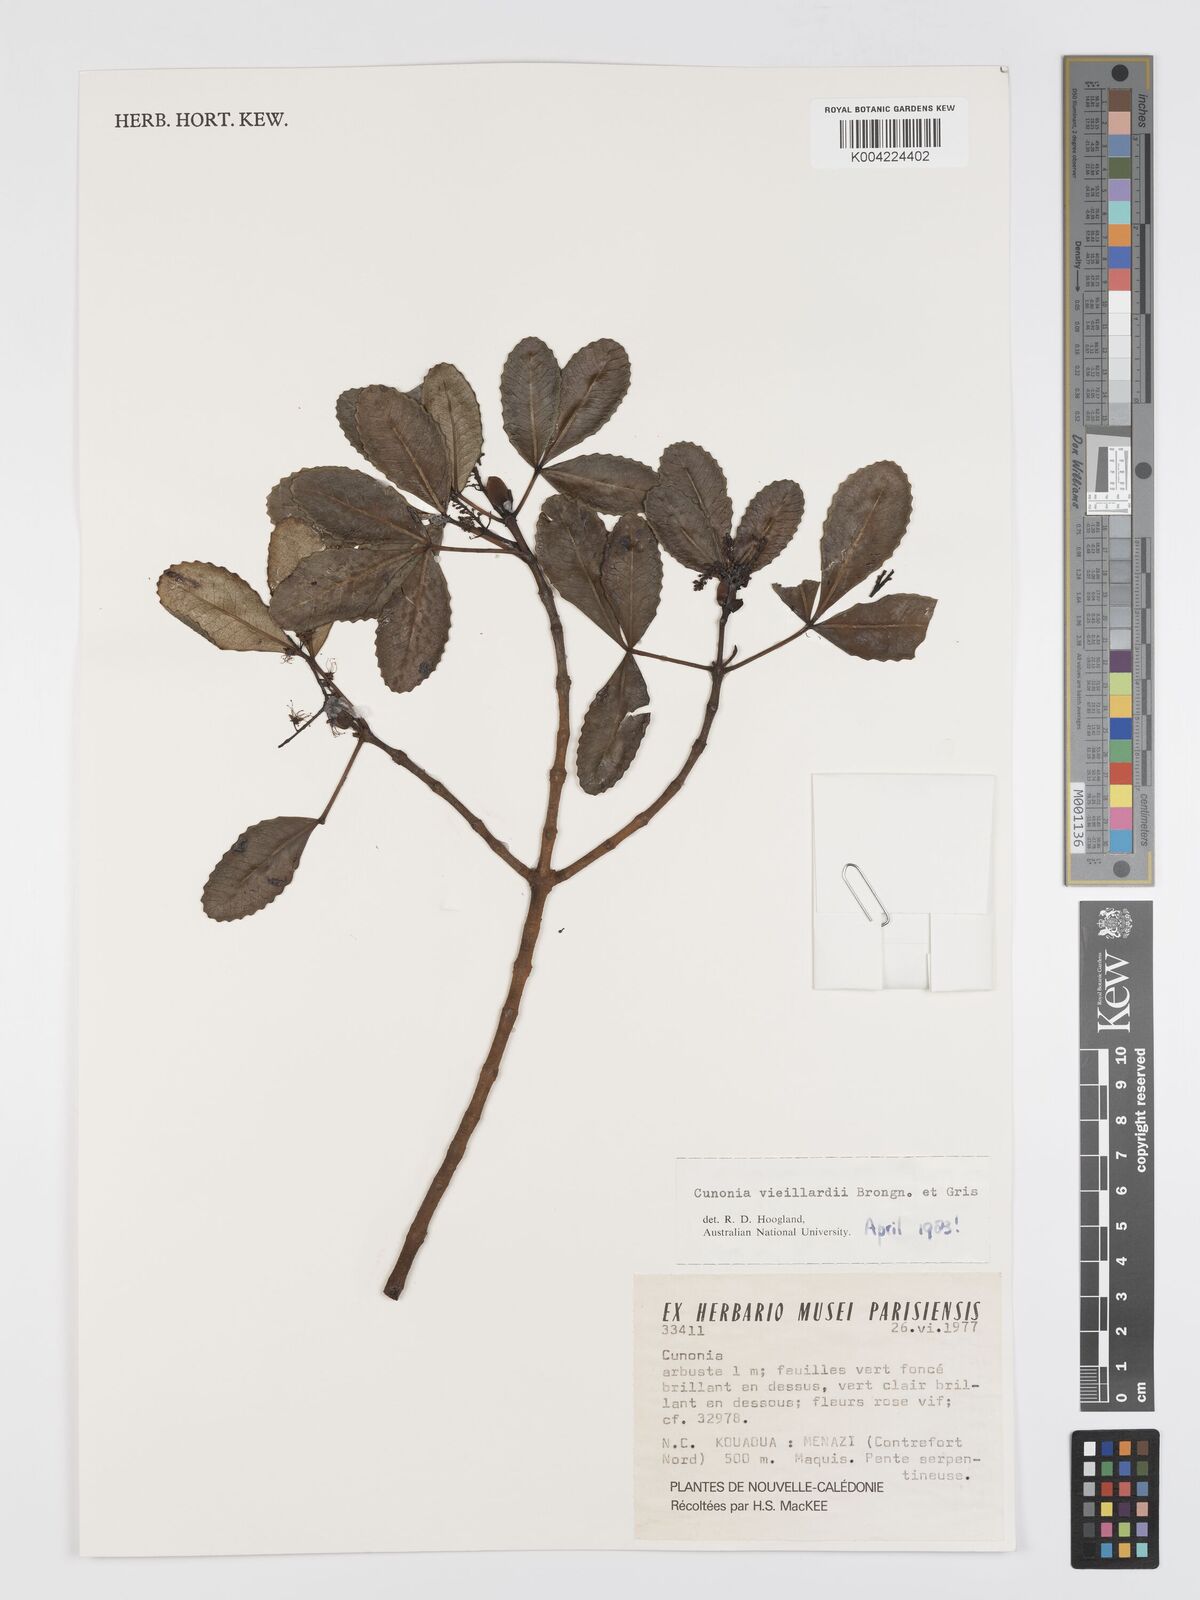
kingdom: Plantae
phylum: Tracheophyta
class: Magnoliopsida
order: Oxalidales
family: Cunoniaceae
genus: Cunonia
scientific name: Cunonia vieillardii
